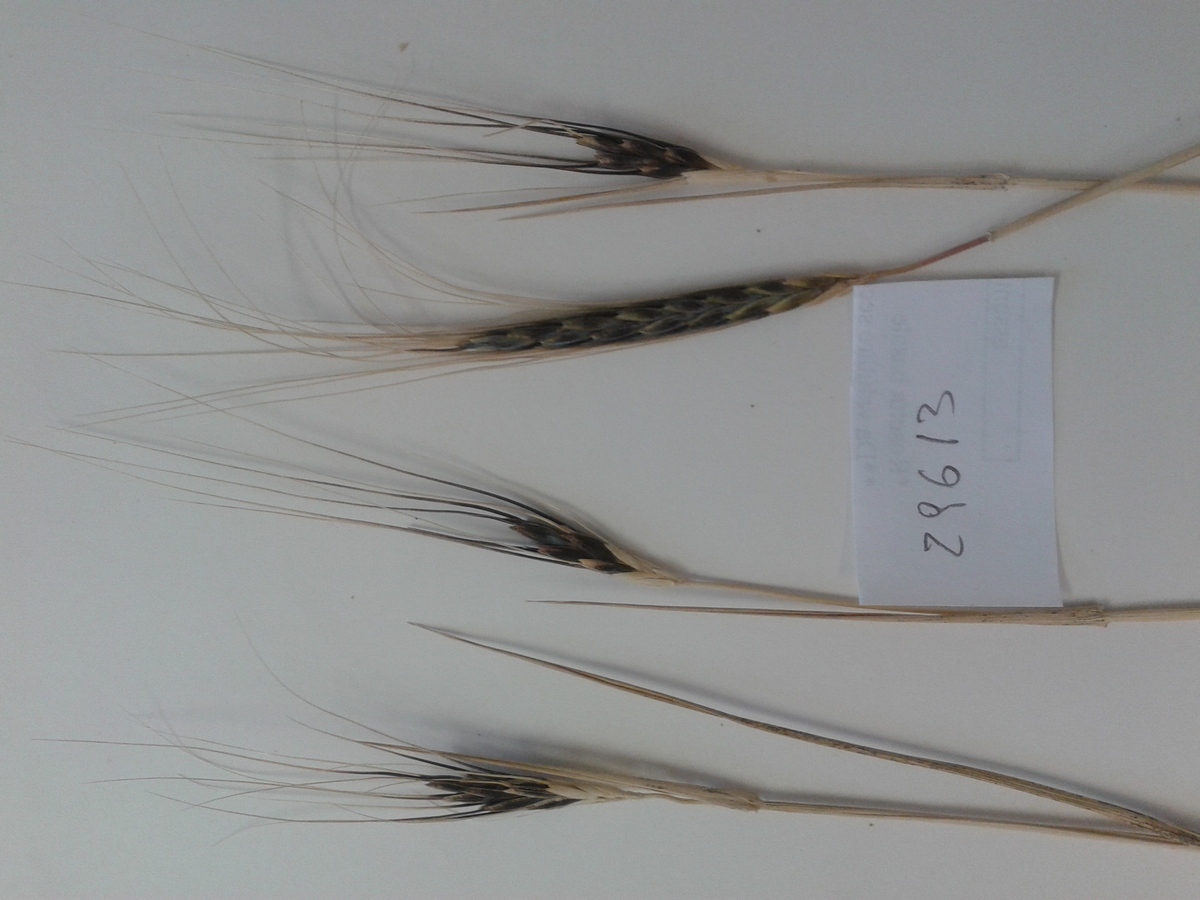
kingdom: Plantae
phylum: Tracheophyta
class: Liliopsida
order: Poales
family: Poaceae
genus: Triticum
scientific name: Triticum turgidum
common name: Rivet wheat
